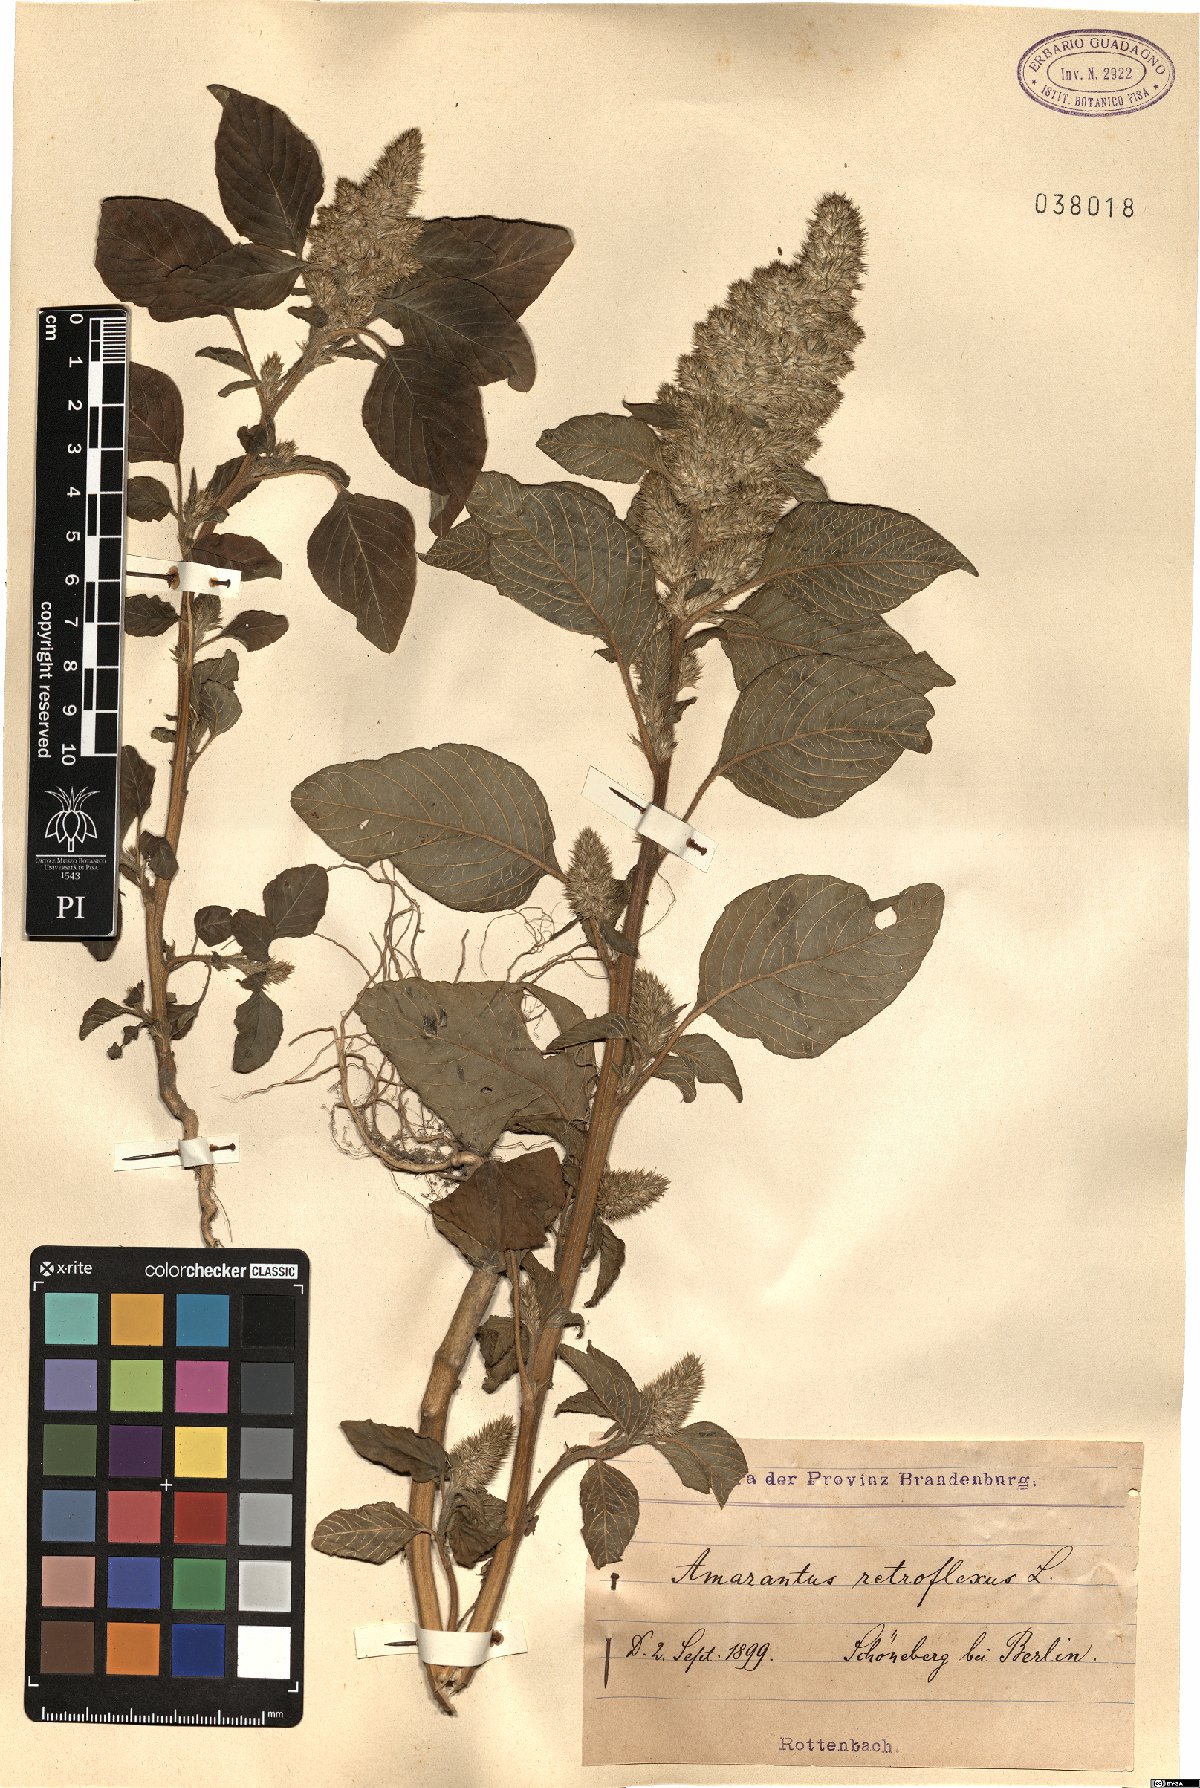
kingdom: Plantae
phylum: Tracheophyta
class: Magnoliopsida
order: Caryophyllales
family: Amaranthaceae
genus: Amaranthus
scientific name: Amaranthus retroflexus
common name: Redroot amaranth
